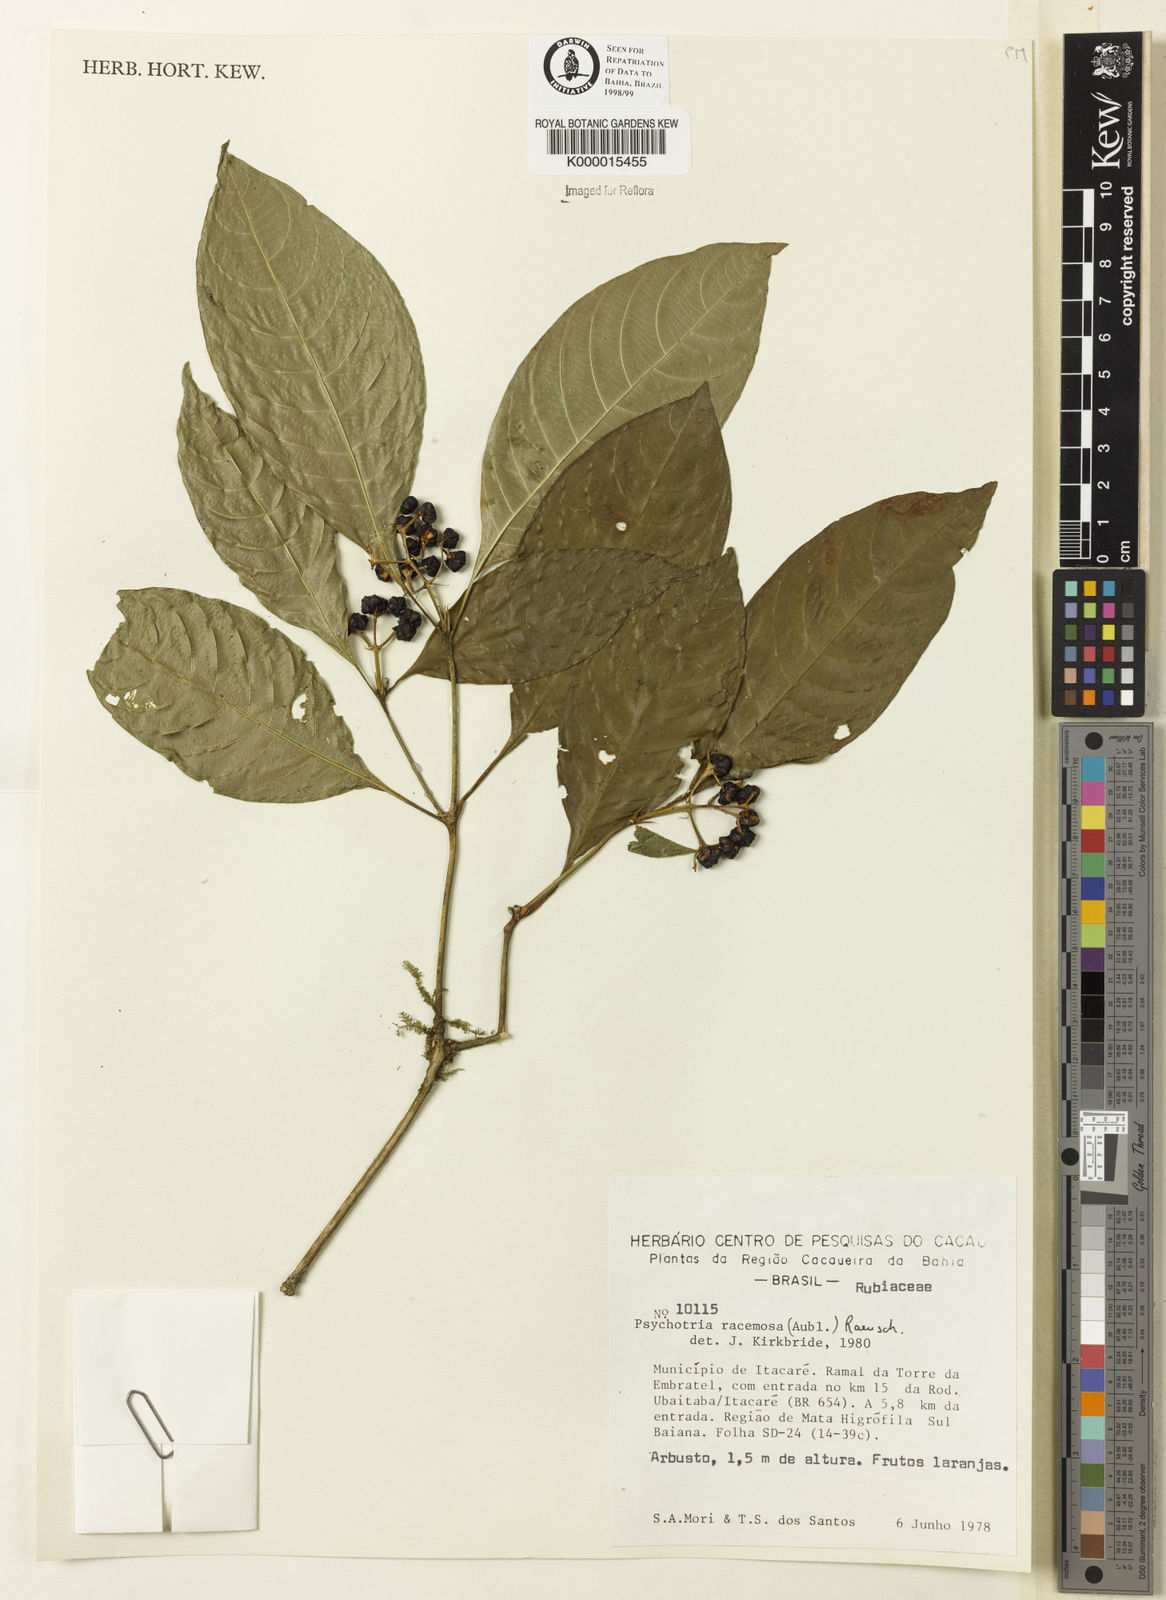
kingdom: Plantae
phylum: Tracheophyta
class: Magnoliopsida
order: Gentianales
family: Rubiaceae
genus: Psychotria
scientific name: Psychotria
